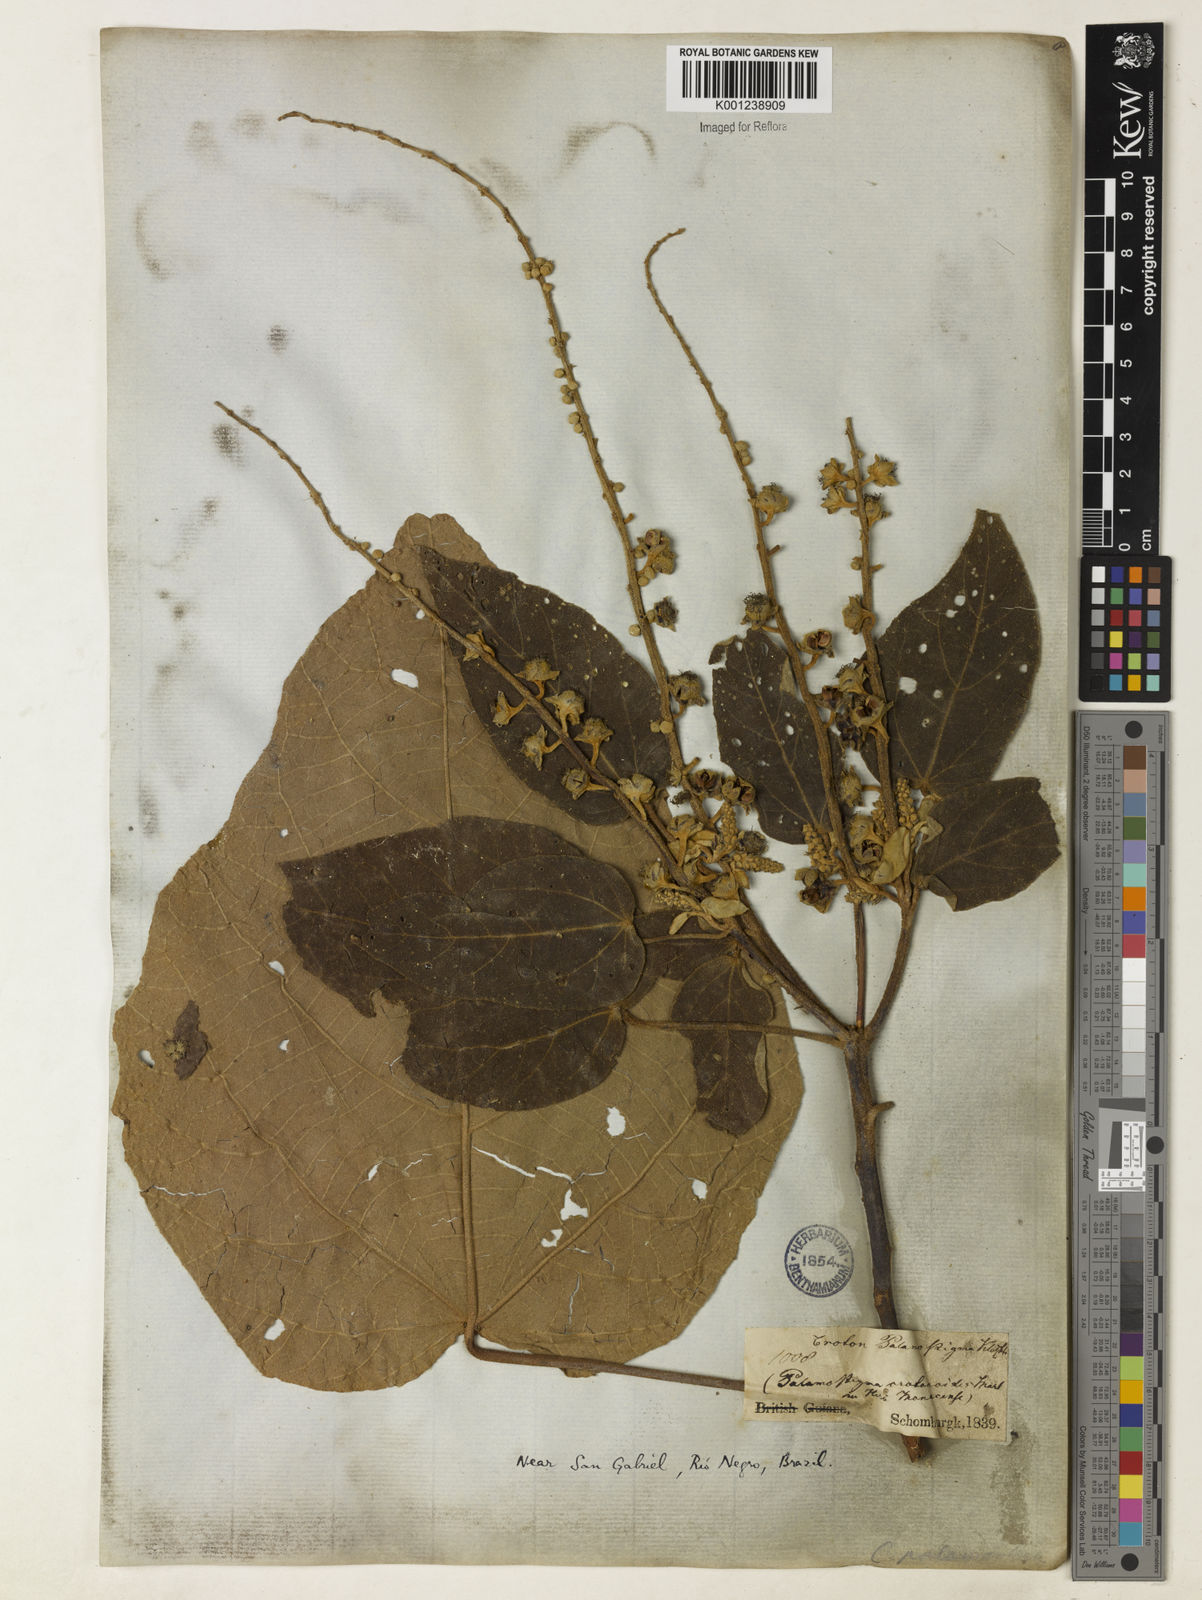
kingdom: Plantae
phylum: Tracheophyta
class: Magnoliopsida
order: Malpighiales
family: Euphorbiaceae
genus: Croton
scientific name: Croton palanostigma
